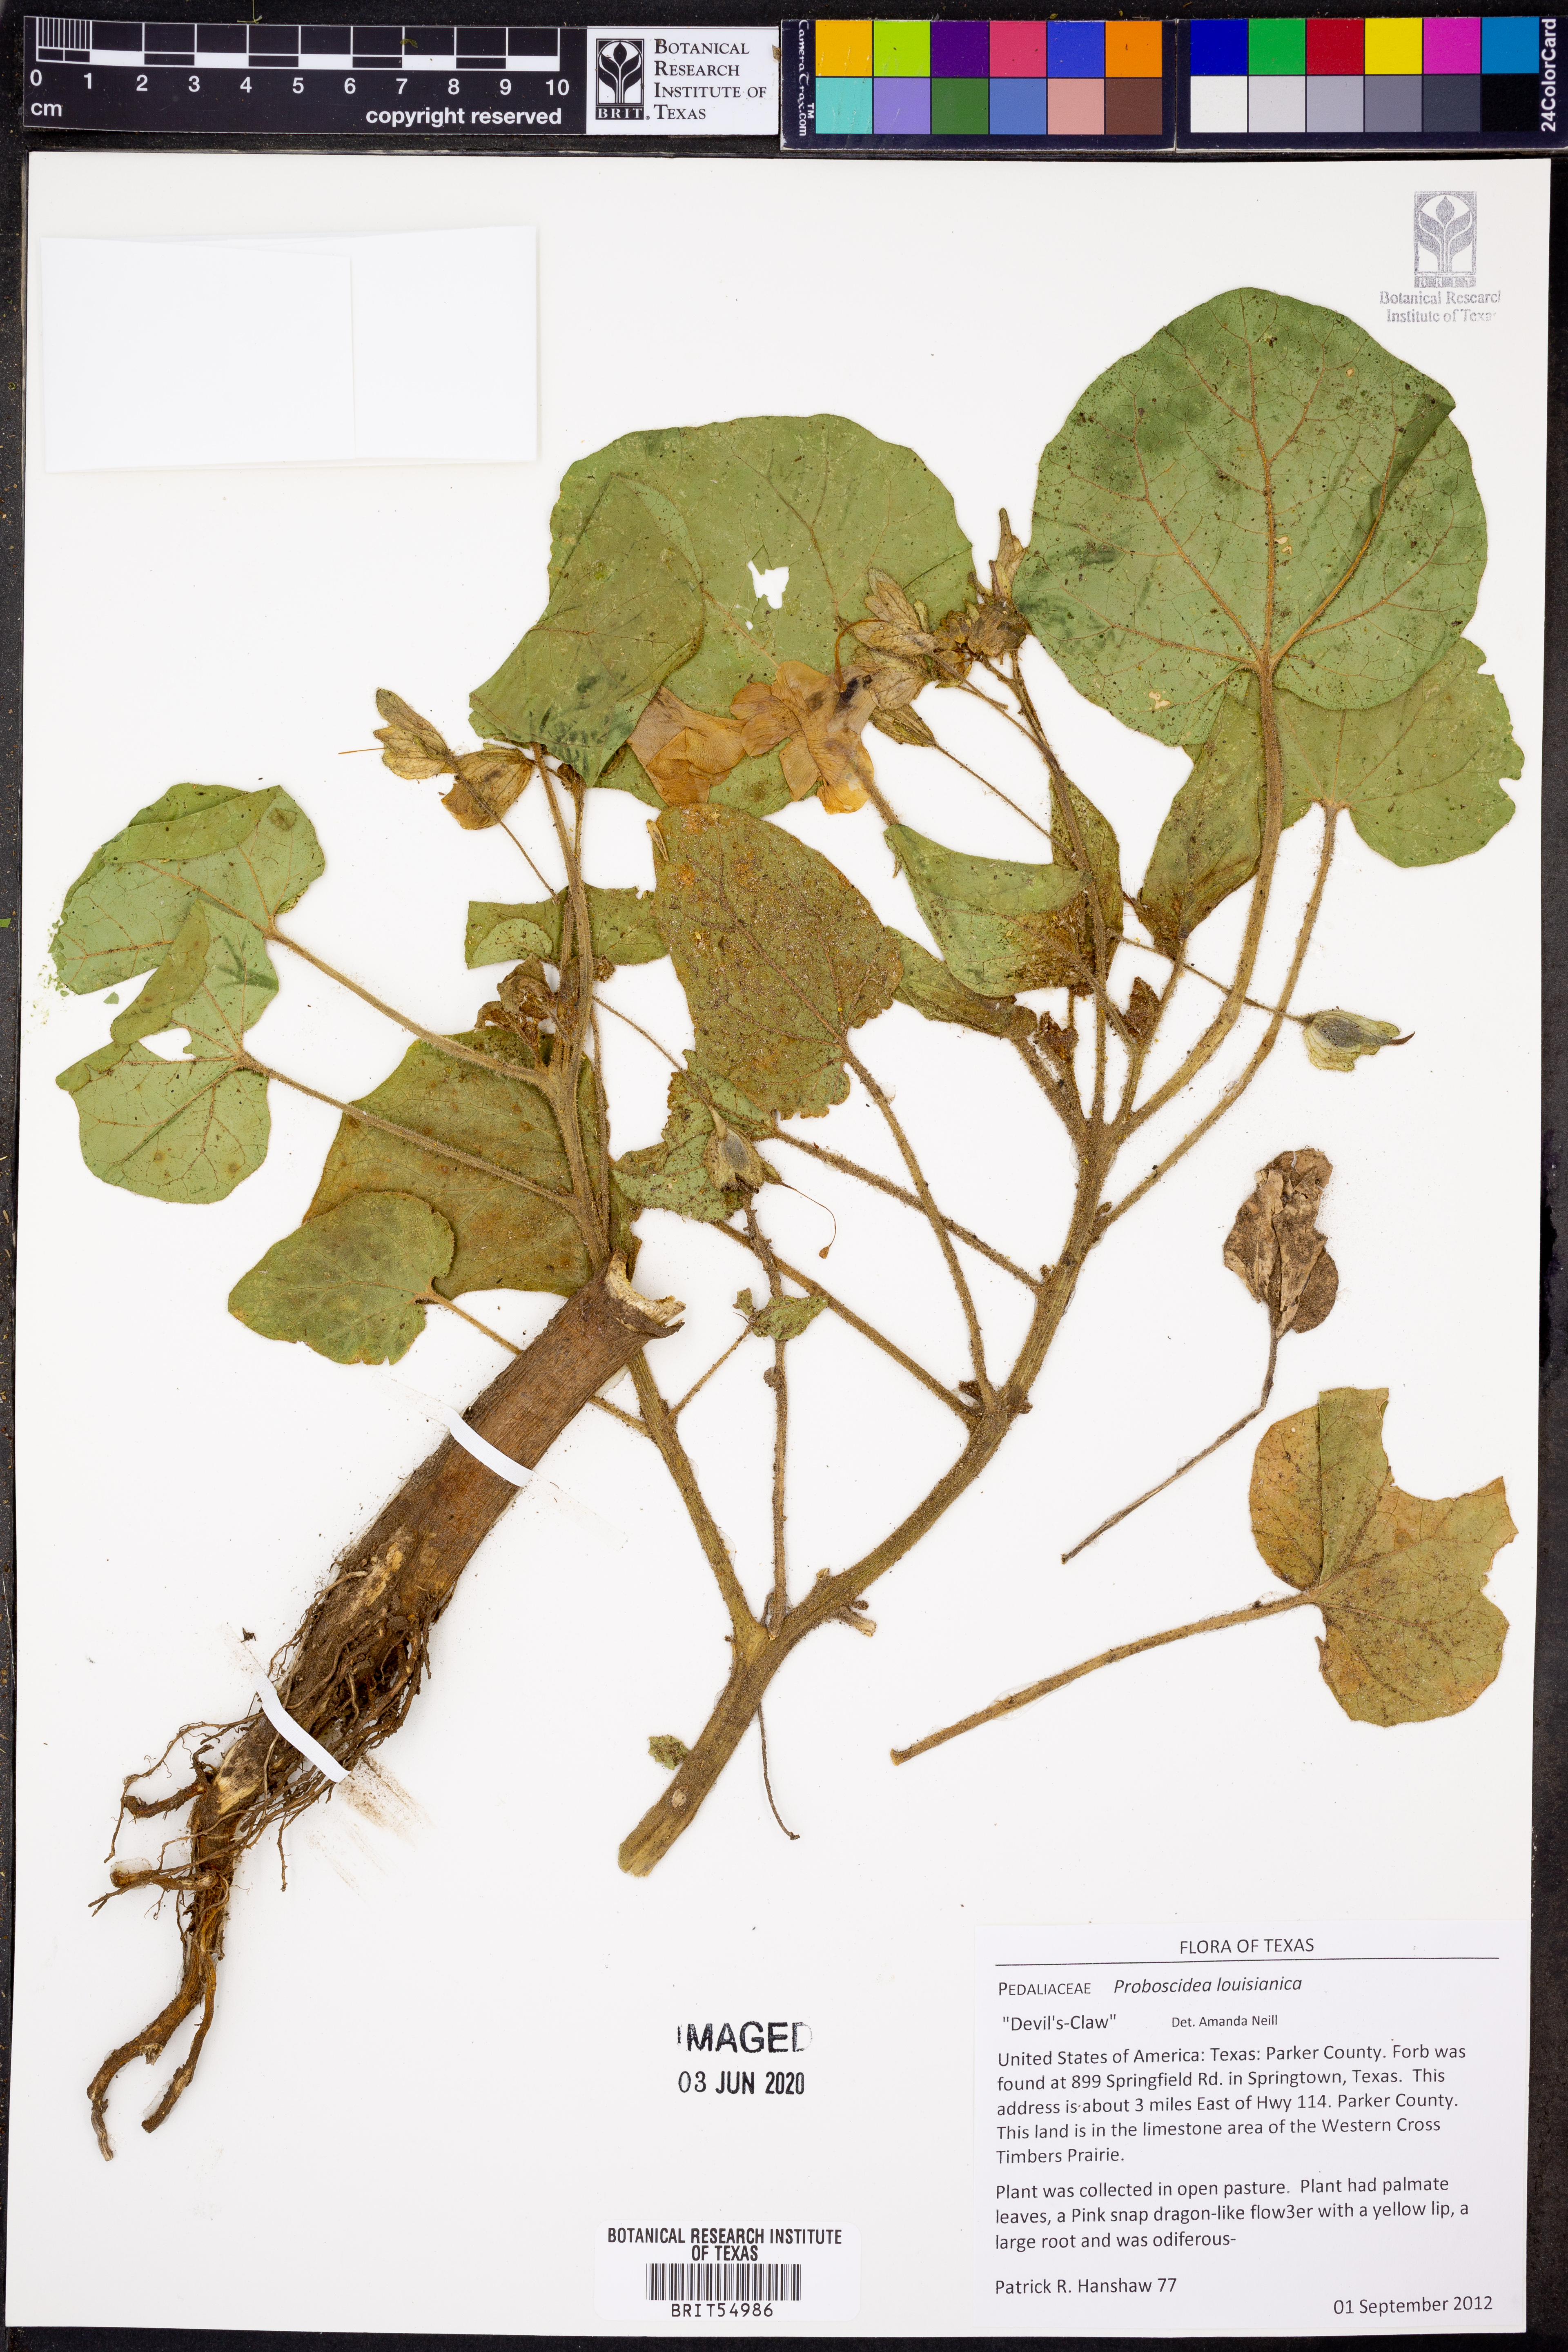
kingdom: Plantae
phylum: Tracheophyta
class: Magnoliopsida
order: Lamiales
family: Martyniaceae
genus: Proboscidea
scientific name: Proboscidea louisianica
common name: Elephant tusks
